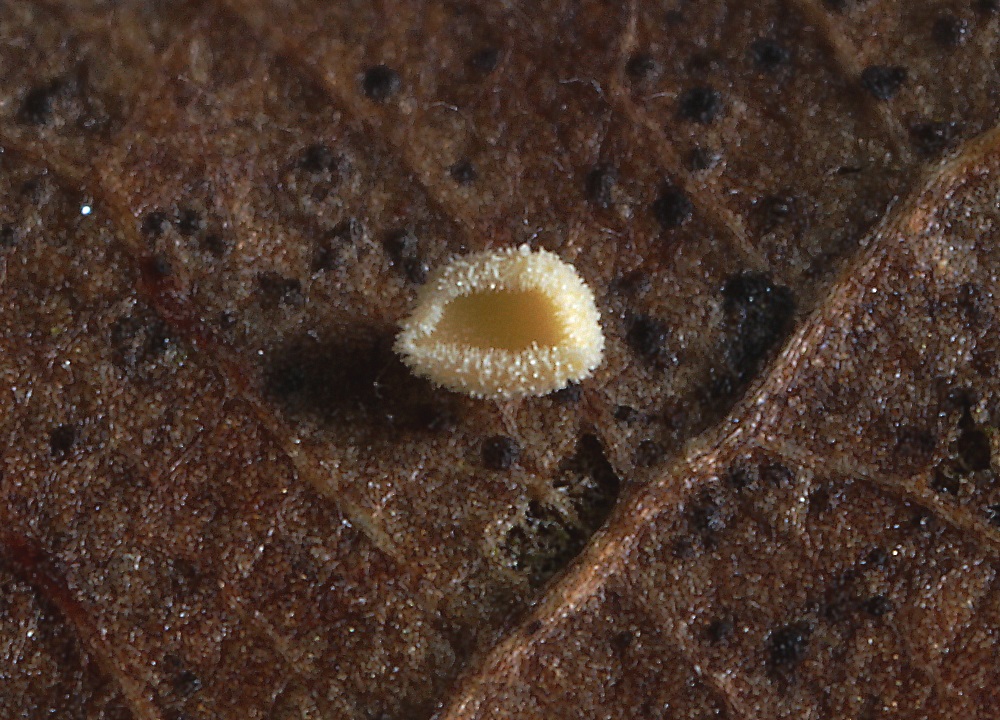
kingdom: Fungi
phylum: Ascomycota
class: Leotiomycetes
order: Helotiales
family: Lachnaceae
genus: Lachnum
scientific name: Lachnum rhytismatis
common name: blad-frynseskive
